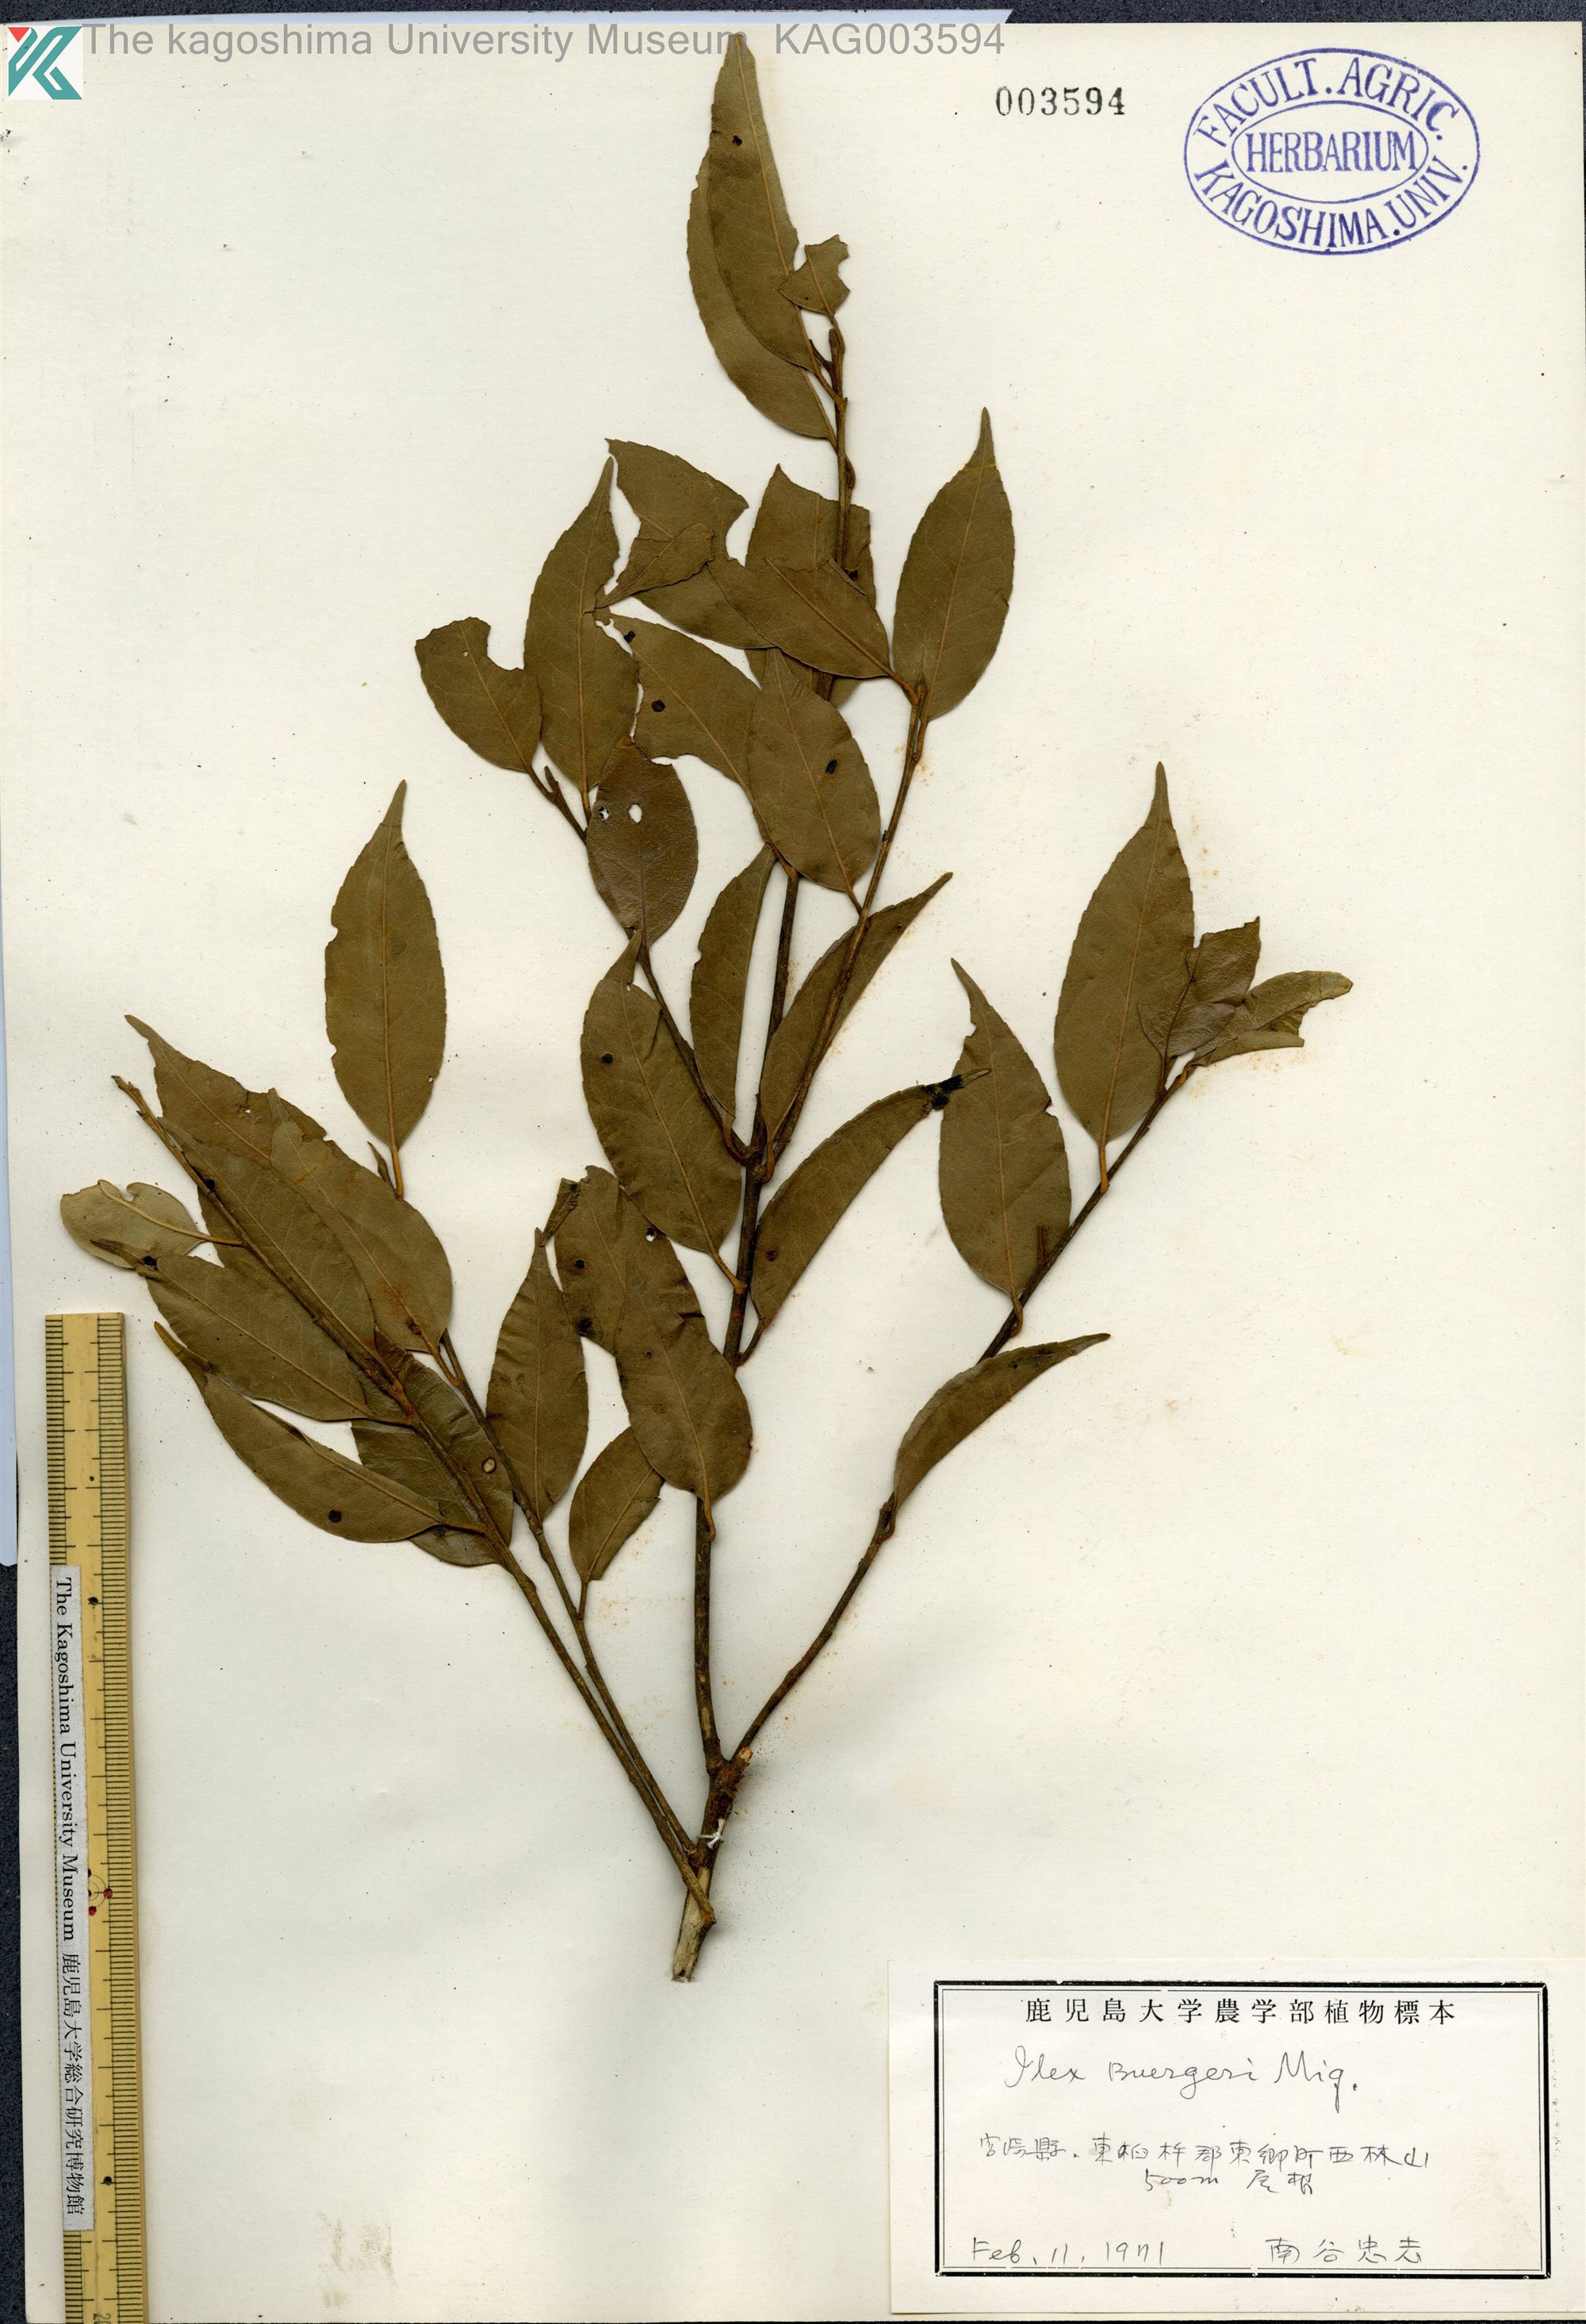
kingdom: Plantae
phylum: Tracheophyta
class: Magnoliopsida
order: Aquifoliales
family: Aquifoliaceae
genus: Ilex
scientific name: Ilex buergeri
